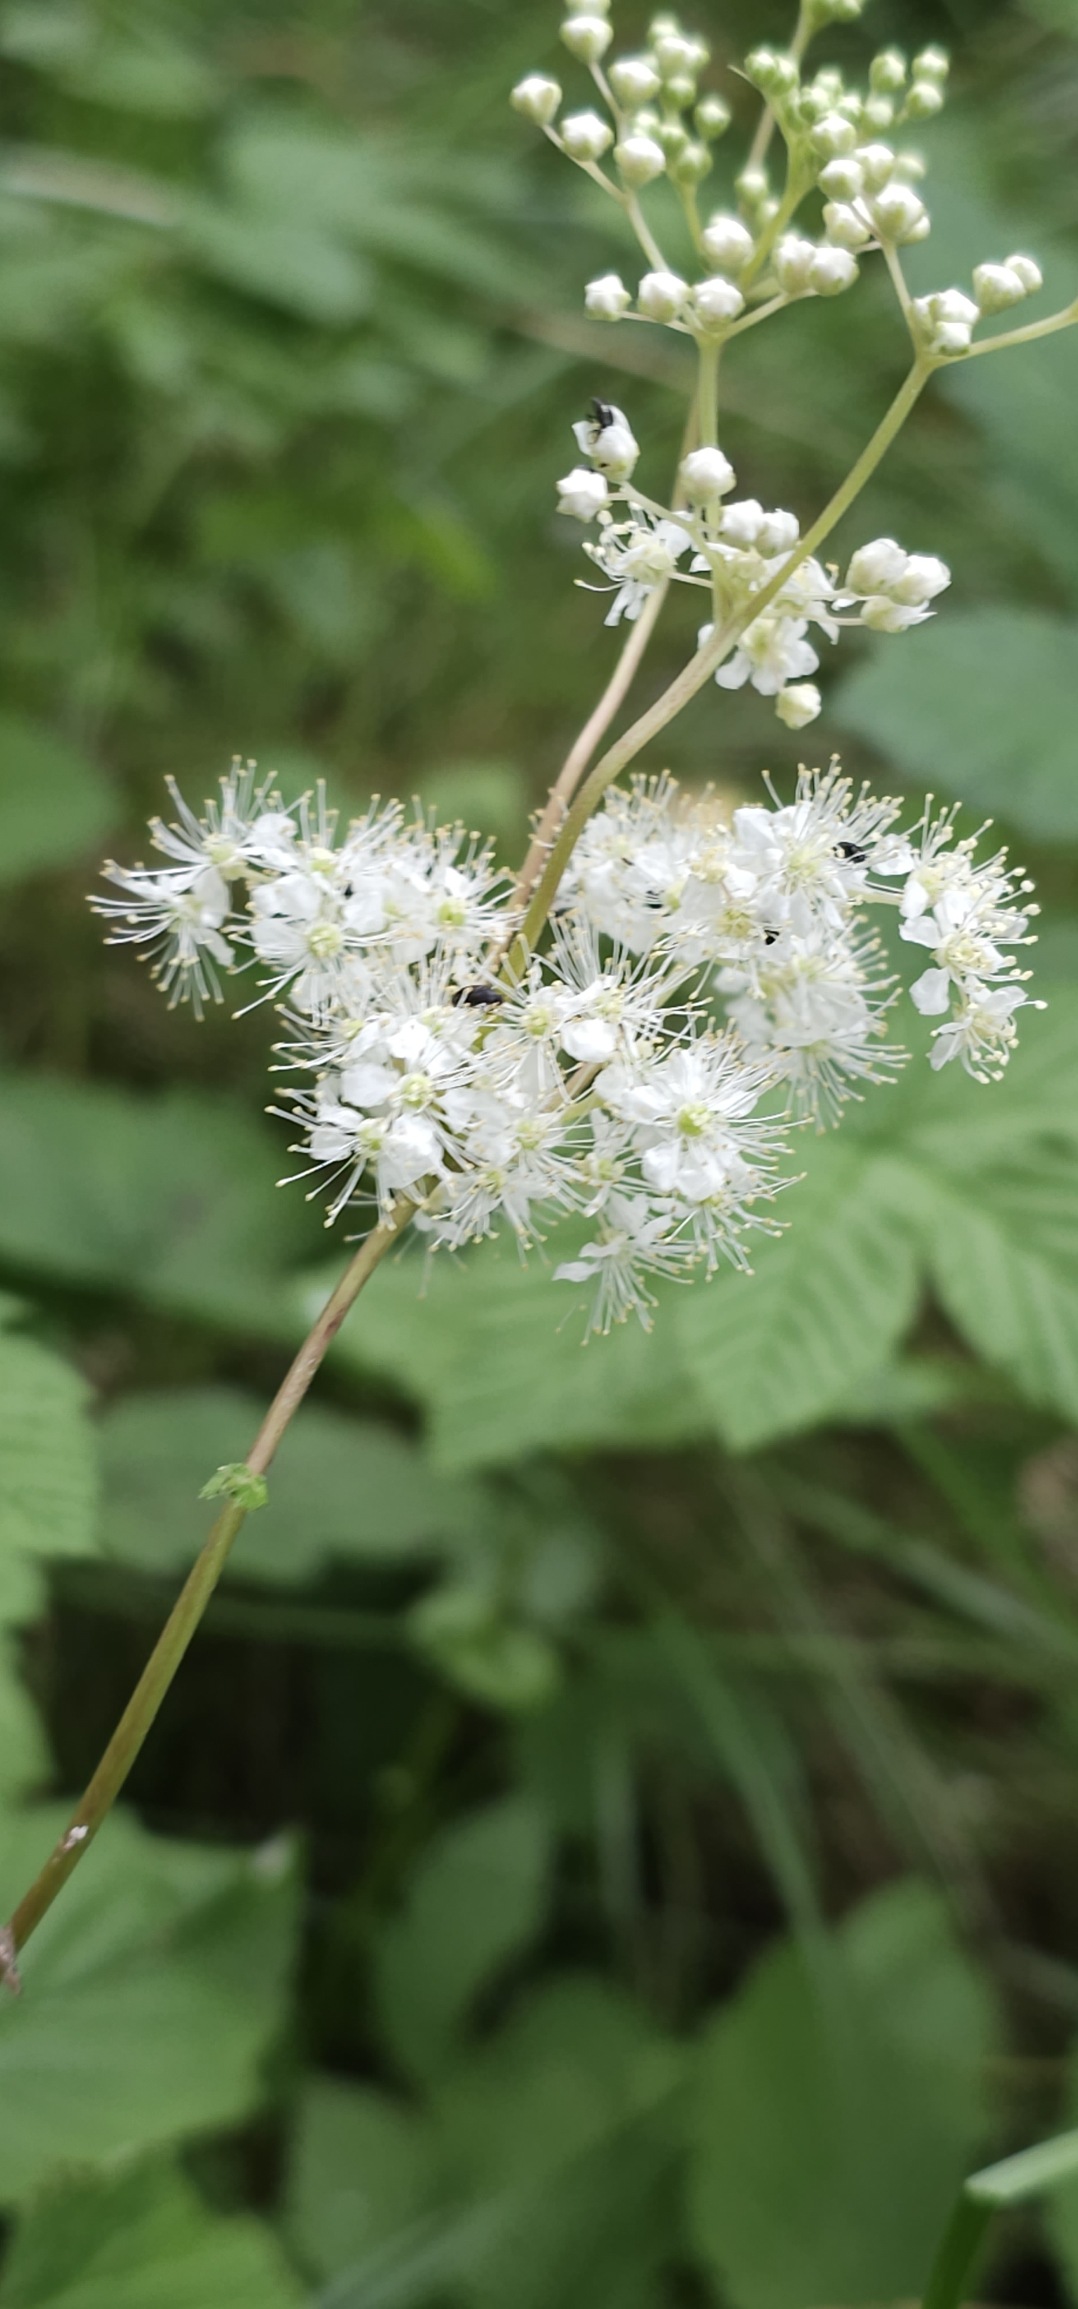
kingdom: Plantae
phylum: Tracheophyta
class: Magnoliopsida
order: Rosales
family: Rosaceae
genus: Filipendula
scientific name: Filipendula ulmaria
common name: Almindelig mjødurt
